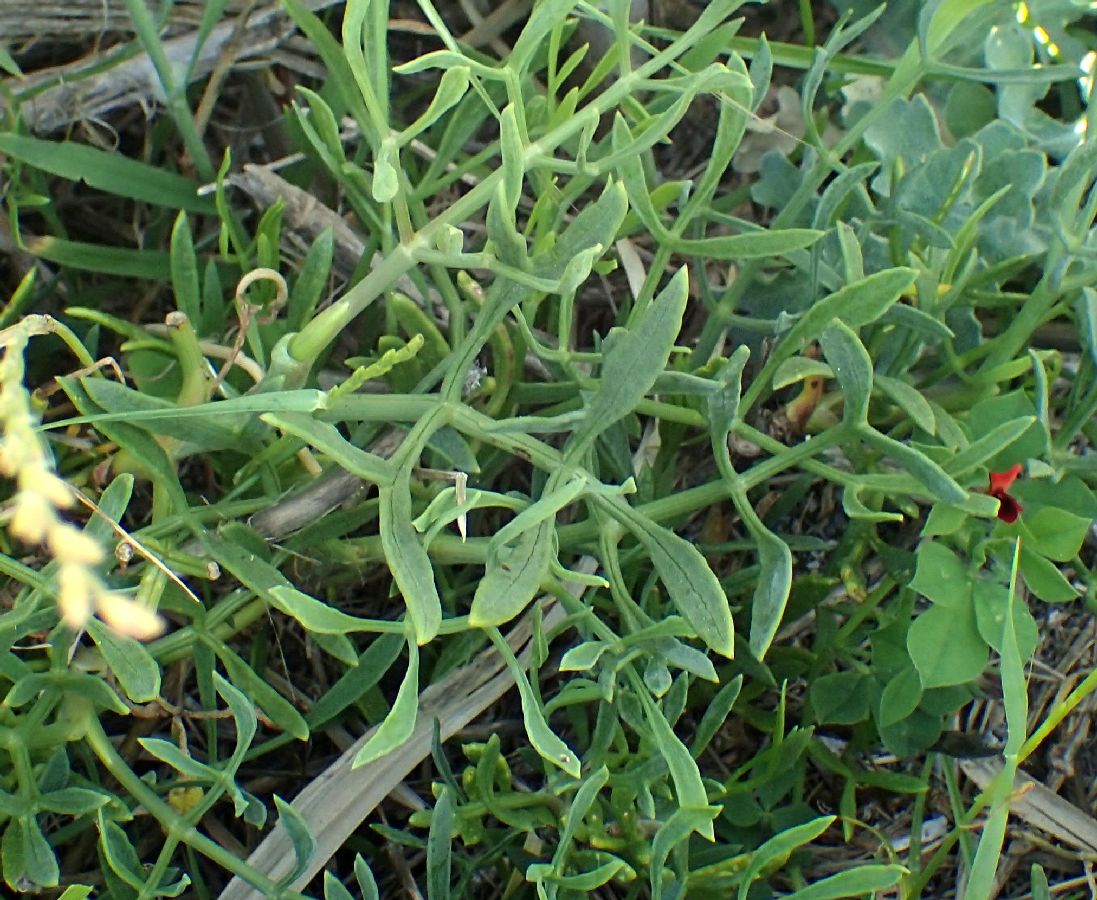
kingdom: Plantae
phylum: Tracheophyta
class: Magnoliopsida
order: Apiales
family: Apiaceae
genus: Crithmum
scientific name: Crithmum maritimum
